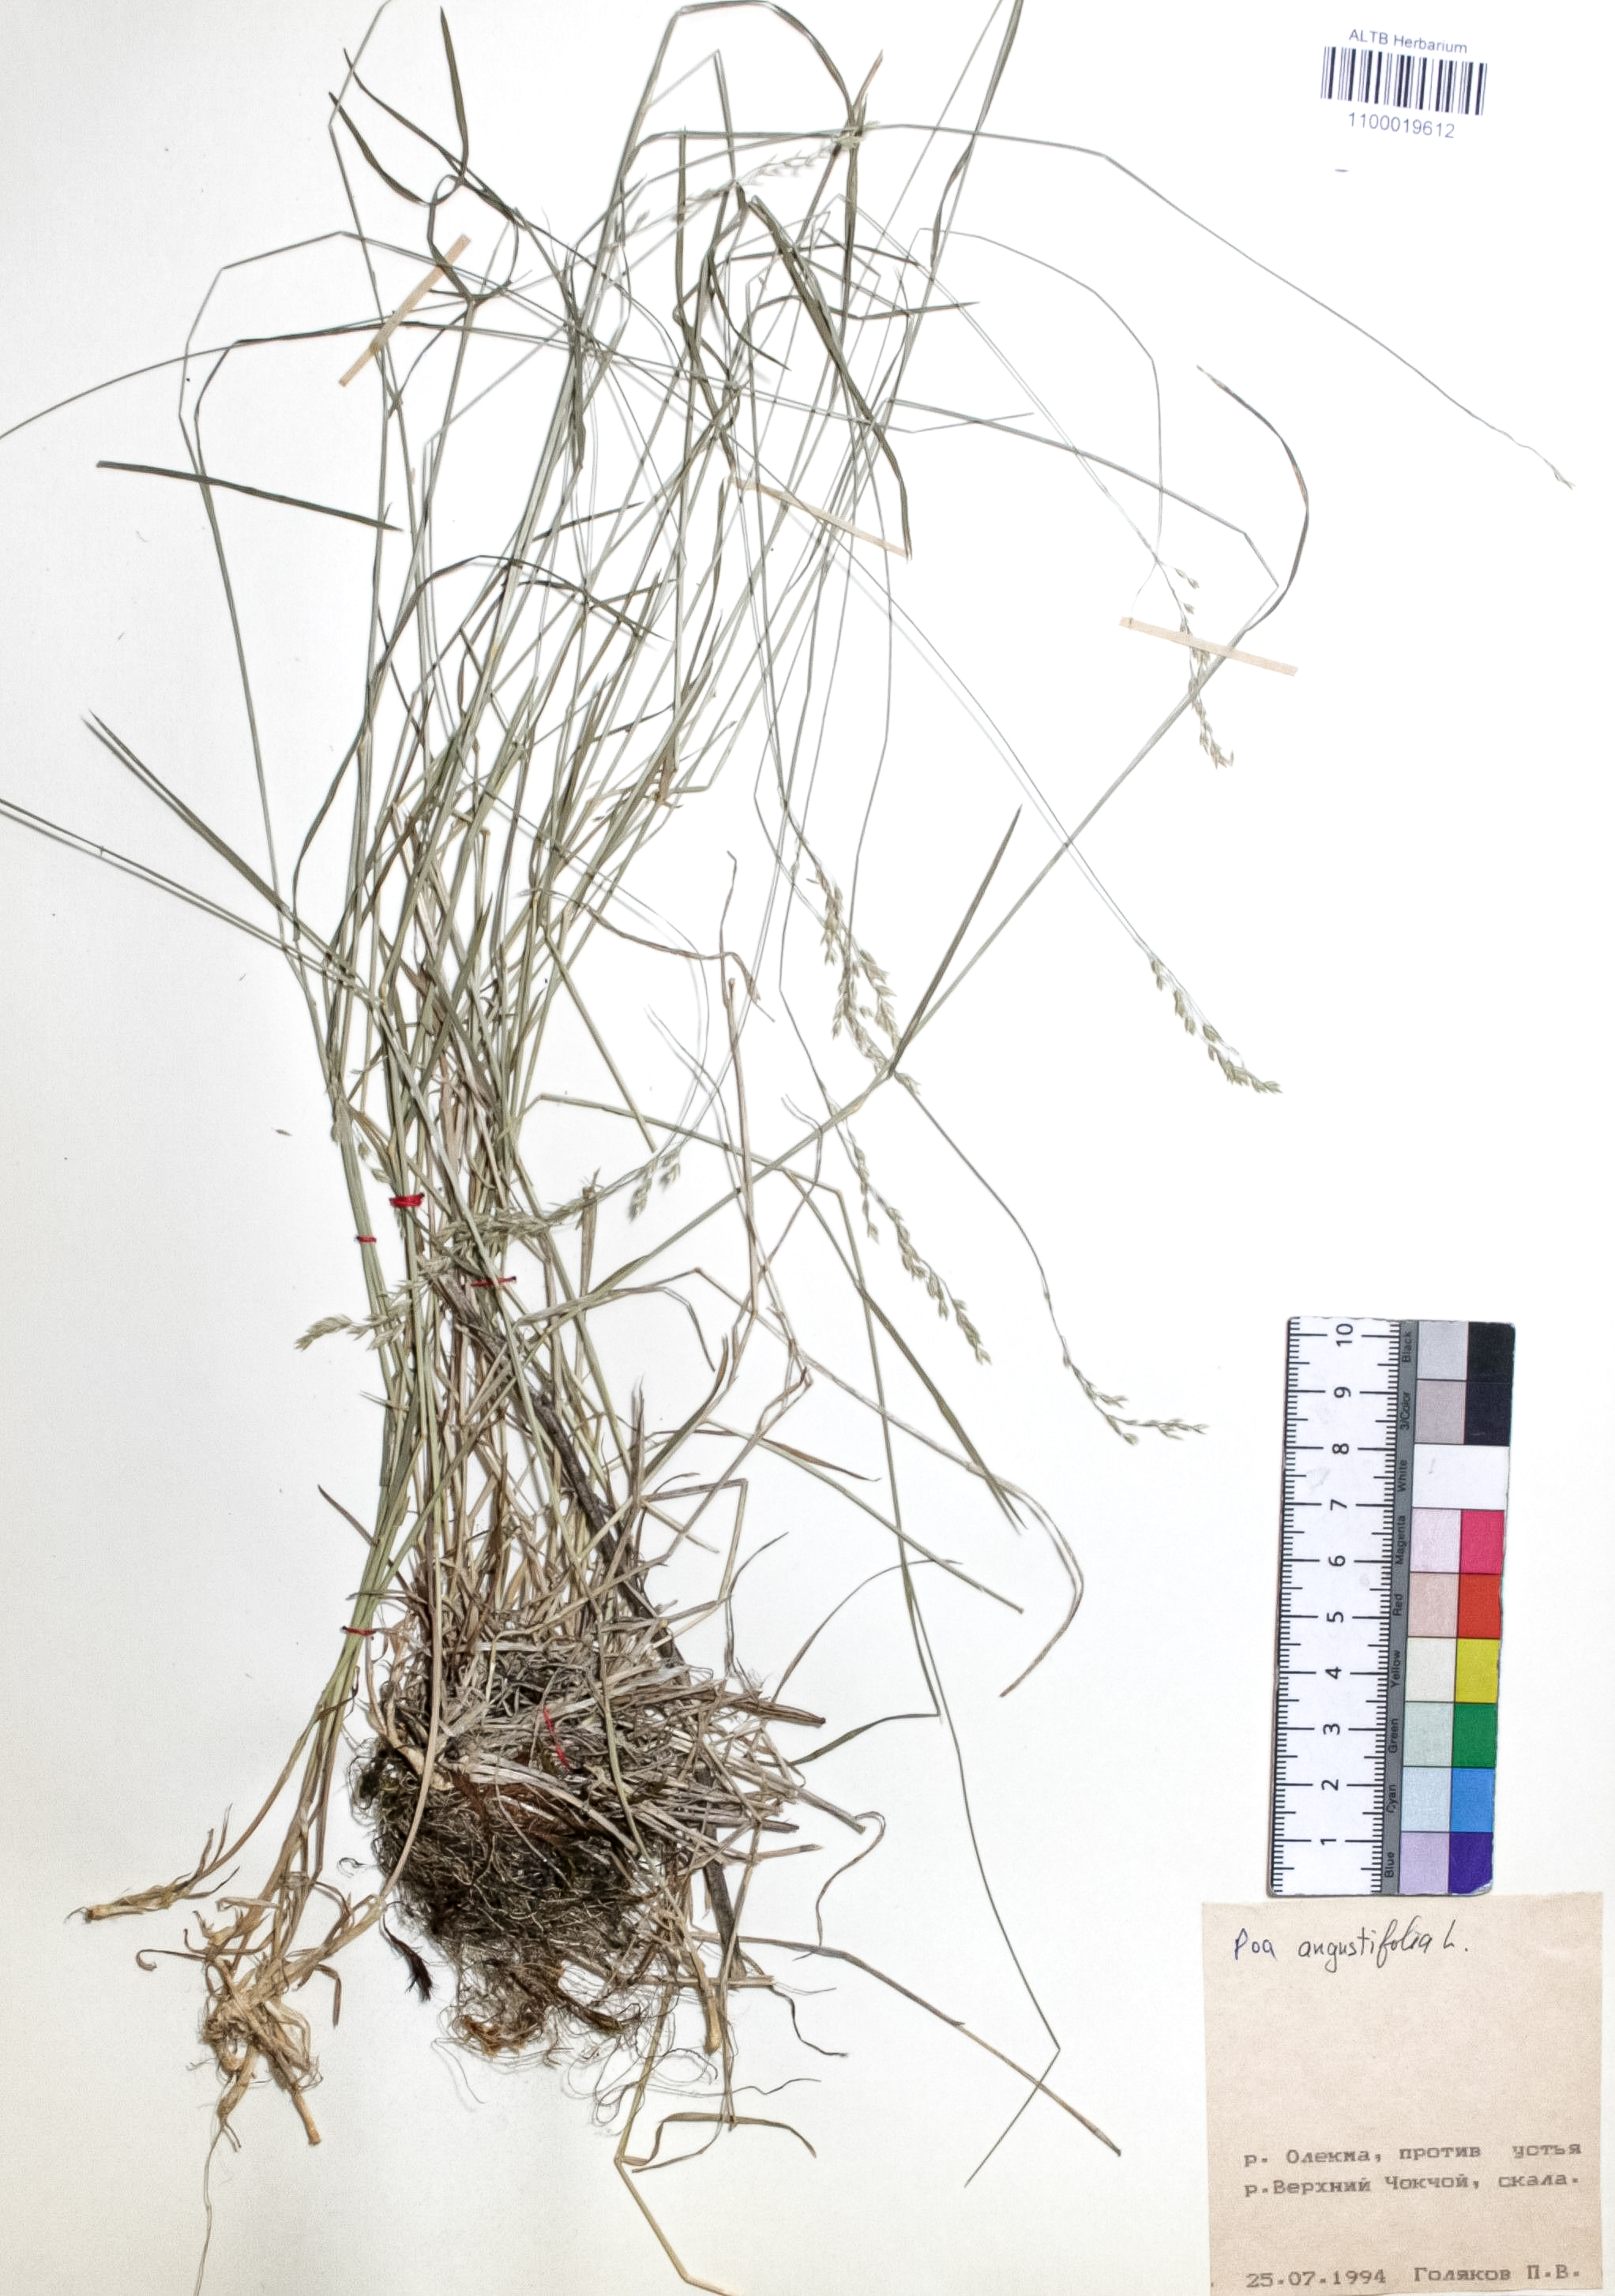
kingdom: Plantae
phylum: Tracheophyta
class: Liliopsida
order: Poales
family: Poaceae
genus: Poa
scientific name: Poa angustifolia
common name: Narrow-leaved meadow-grass
